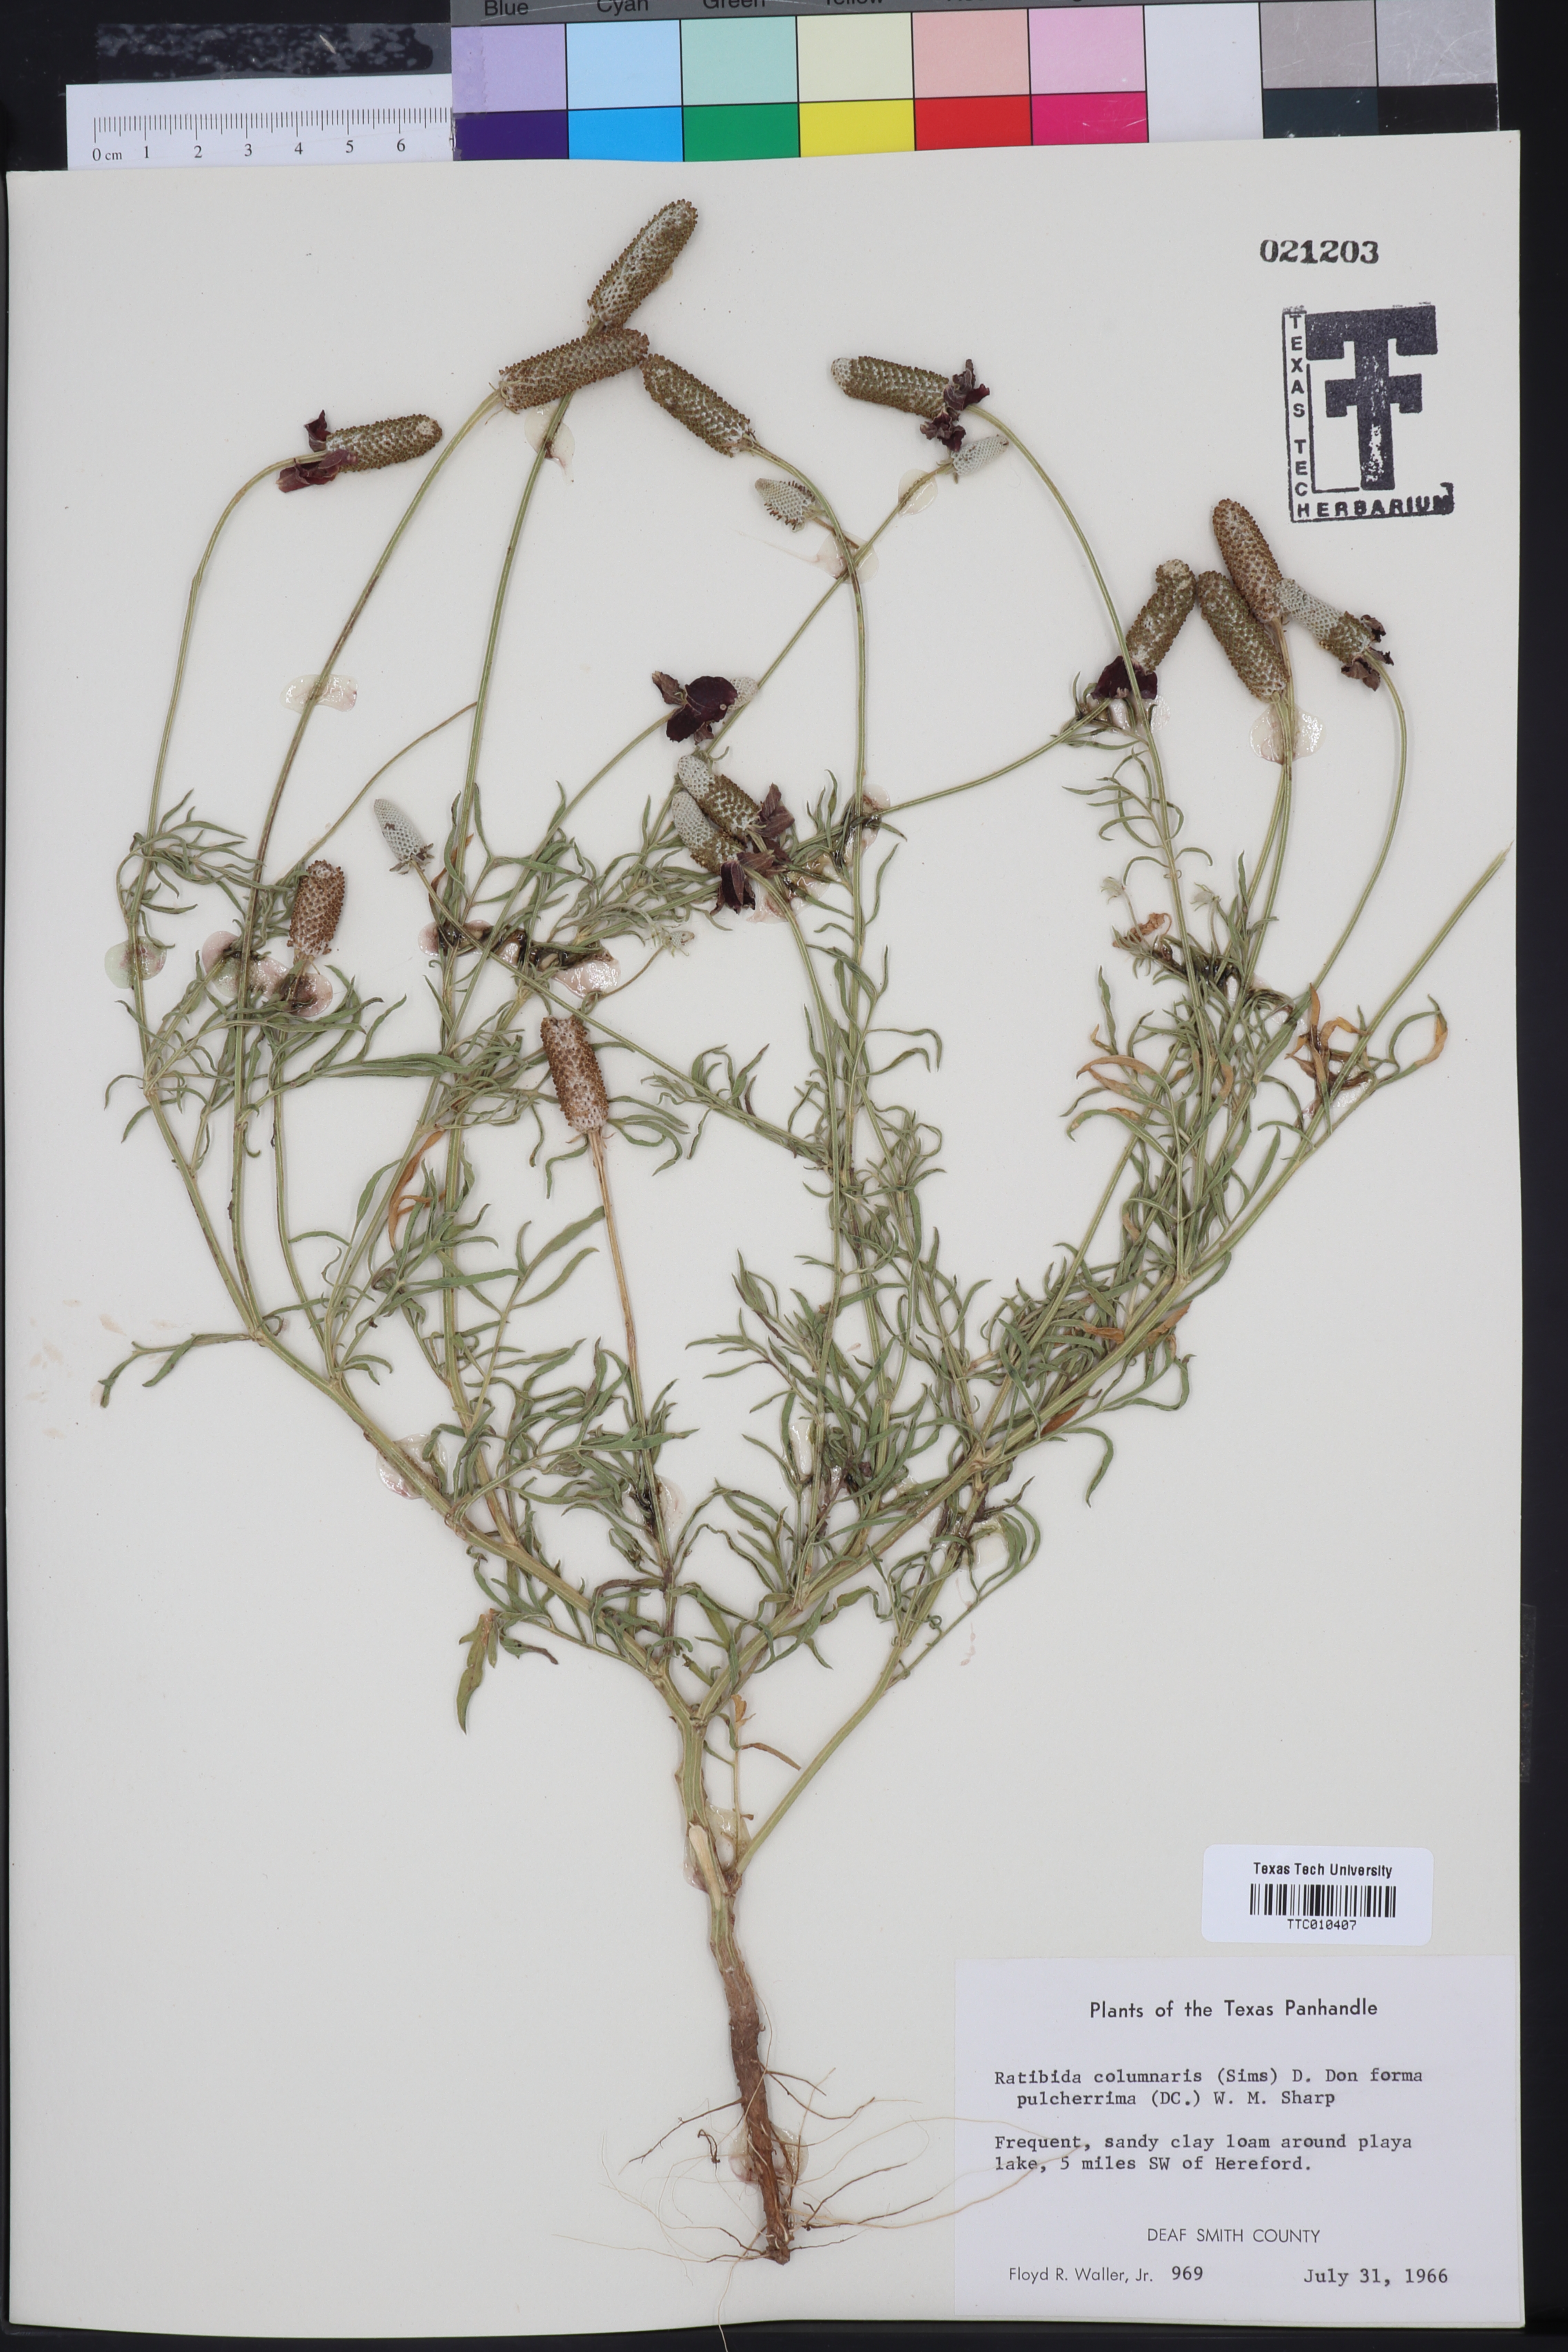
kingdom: Plantae
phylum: Tracheophyta
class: Magnoliopsida
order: Asterales
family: Asteraceae
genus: Ratibida
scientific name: Ratibida columnifera
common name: Prairie coneflower
